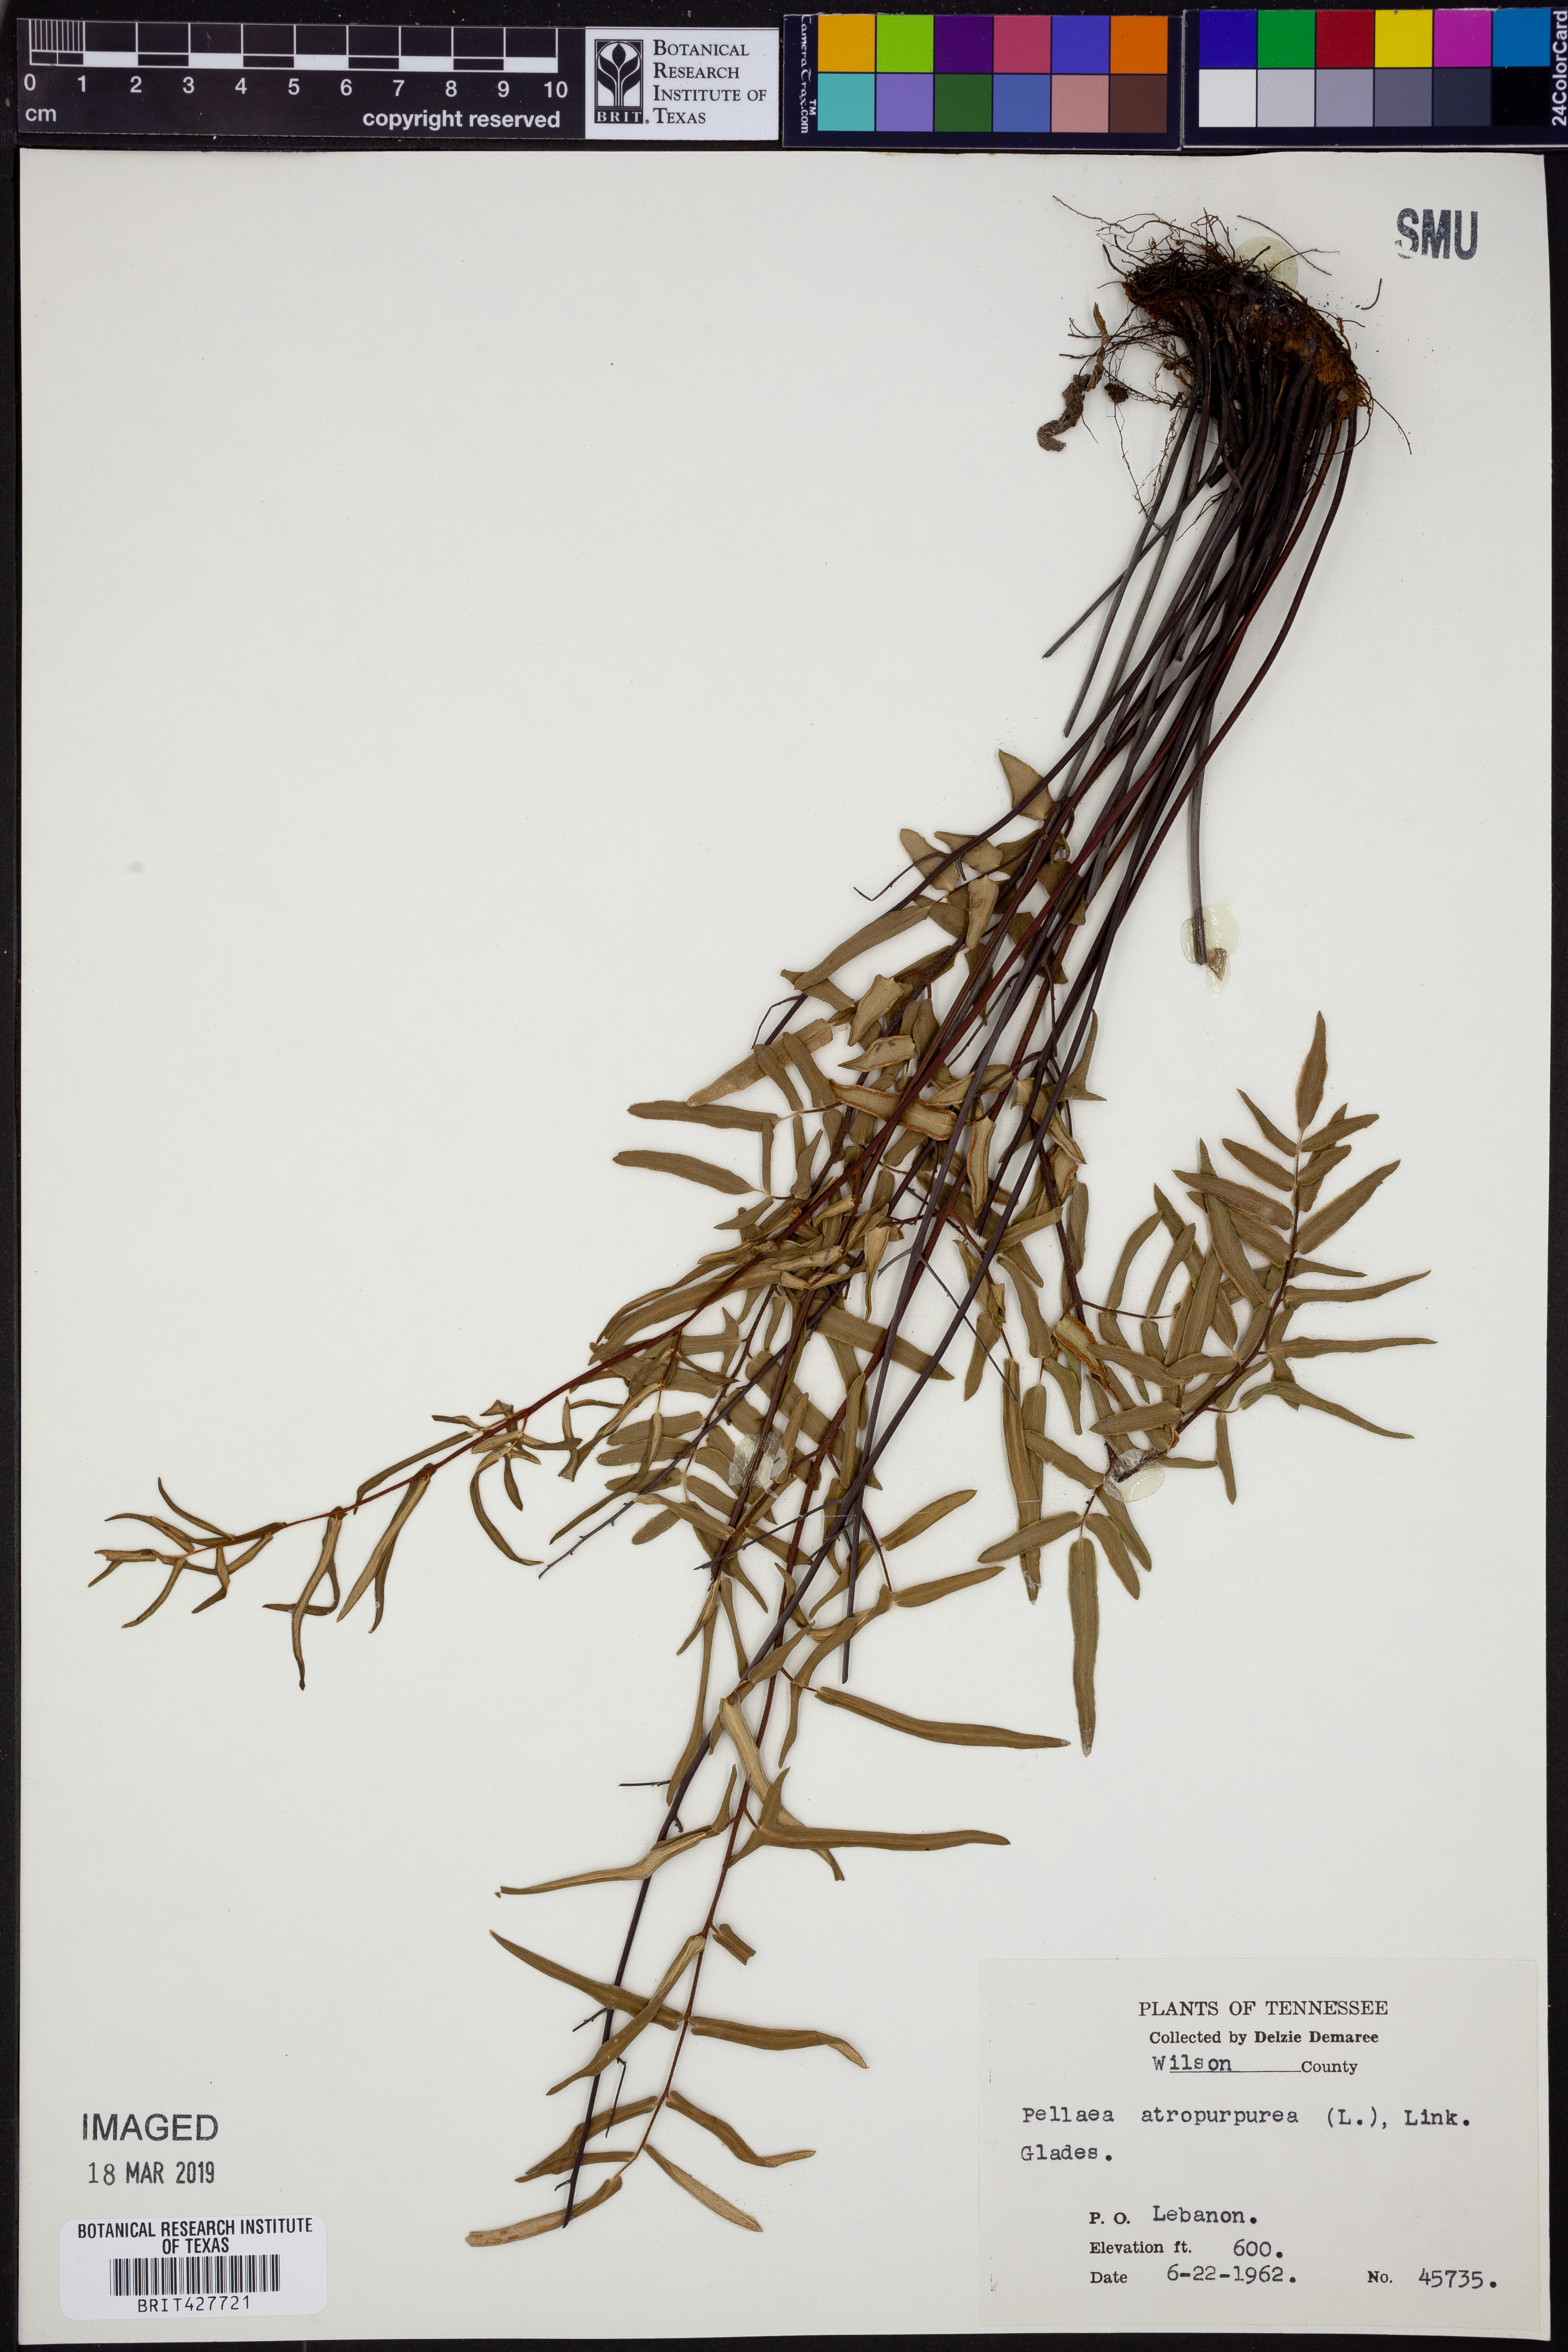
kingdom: Plantae
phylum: Tracheophyta
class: Polypodiopsida
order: Polypodiales
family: Pteridaceae
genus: Pellaea
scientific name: Pellaea atropurpurea
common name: Hairy cliffbrake
